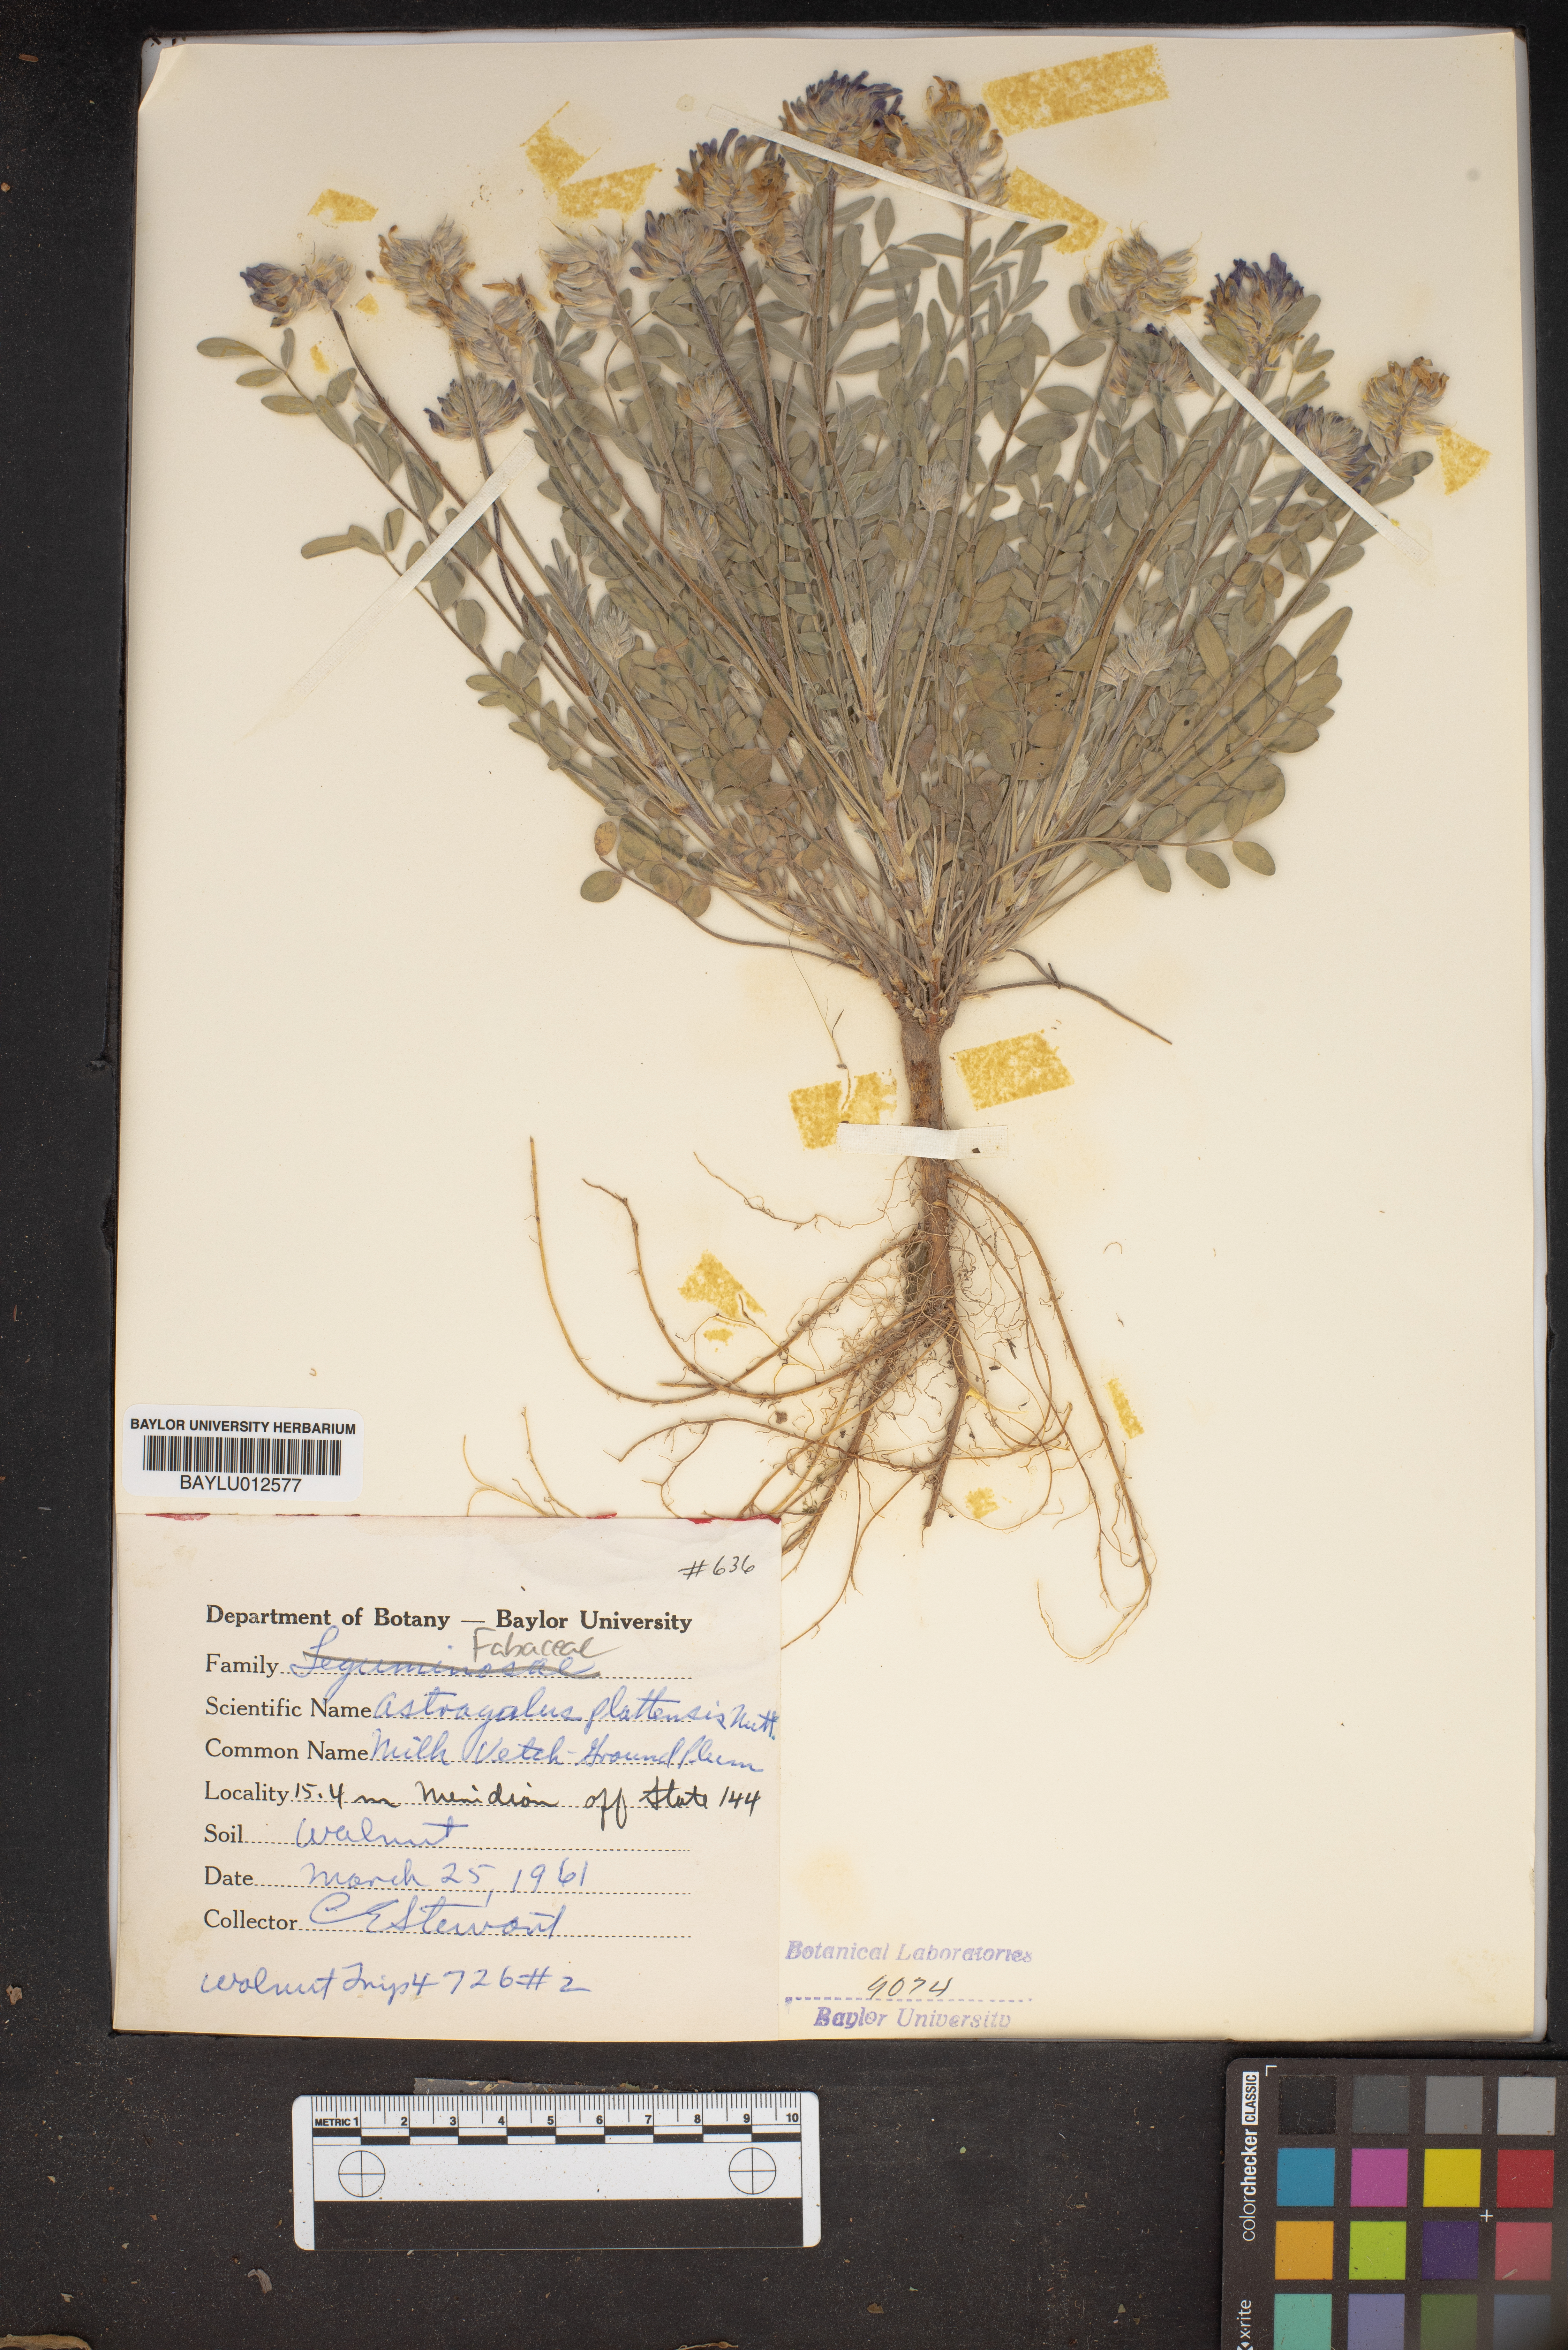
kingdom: Plantae
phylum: Tracheophyta
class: Magnoliopsida
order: Fabales
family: Fabaceae
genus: Astragalus
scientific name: Astragalus plattensis
